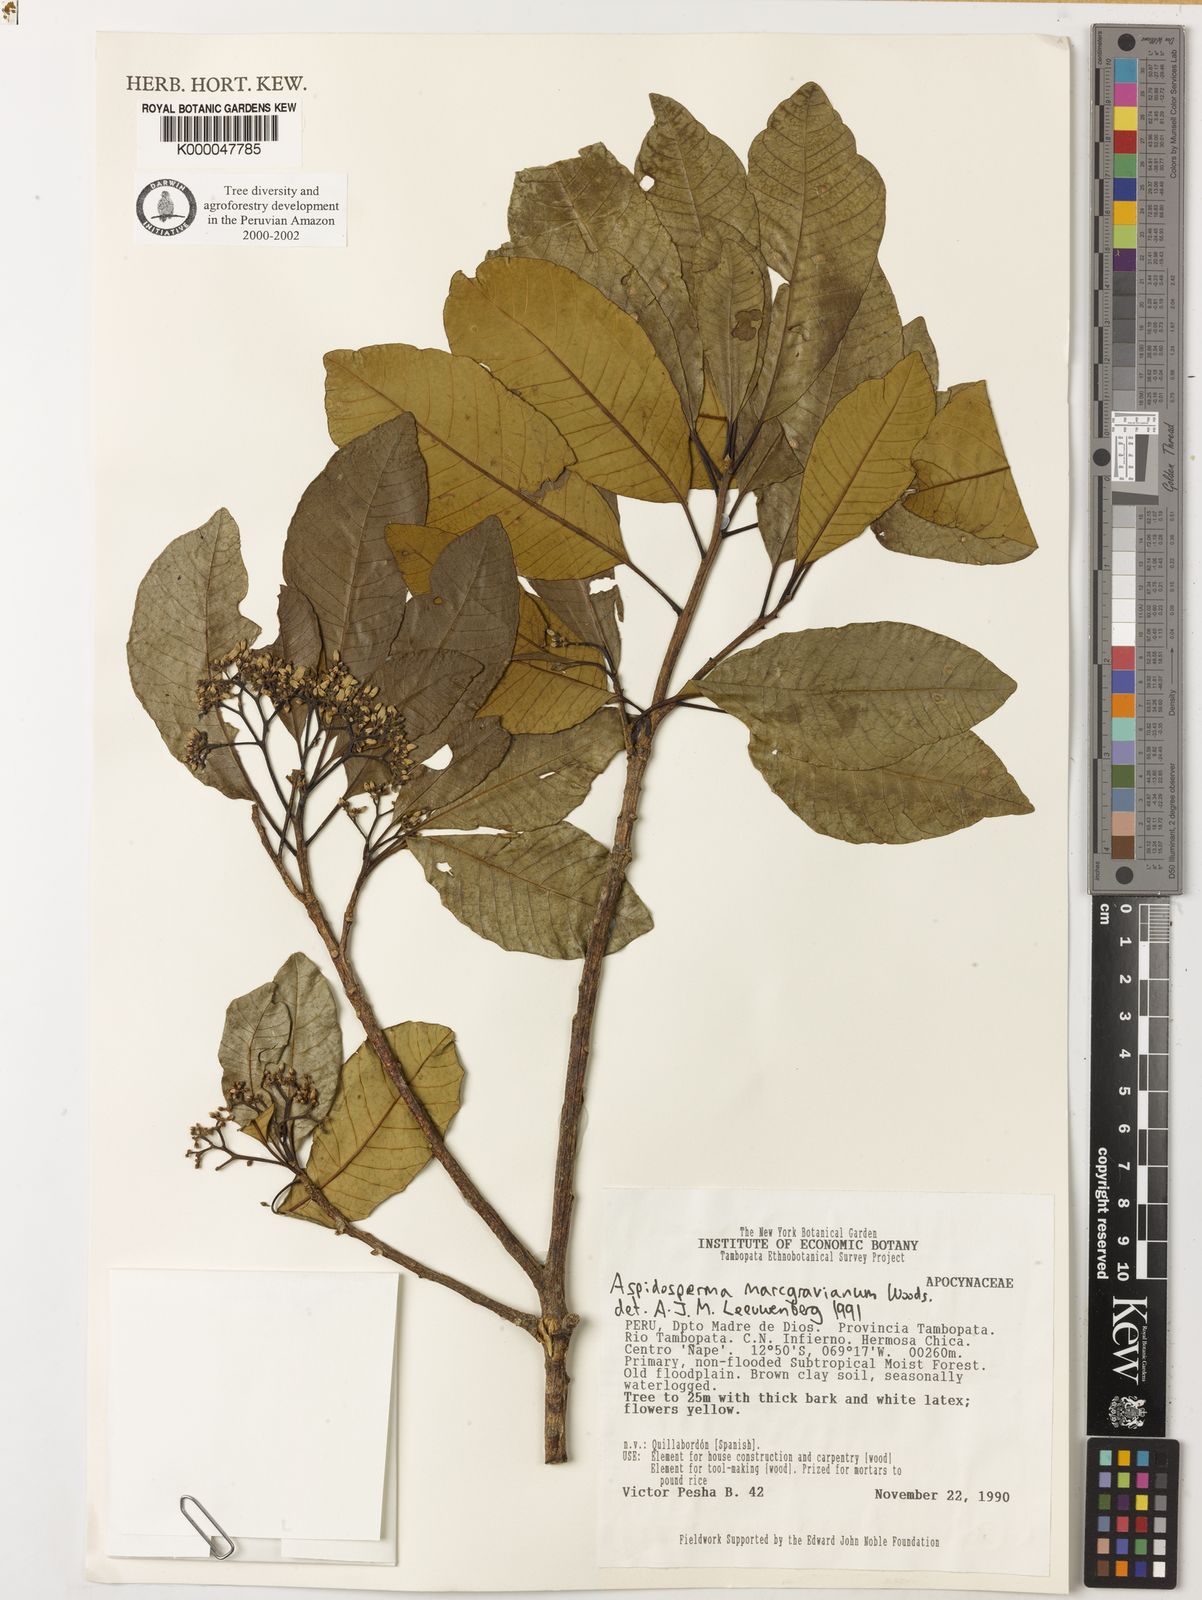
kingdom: Plantae
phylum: Tracheophyta
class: Magnoliopsida
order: Gentianales
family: Apocynaceae
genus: Aspidosperma
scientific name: Aspidosperma excelsum
